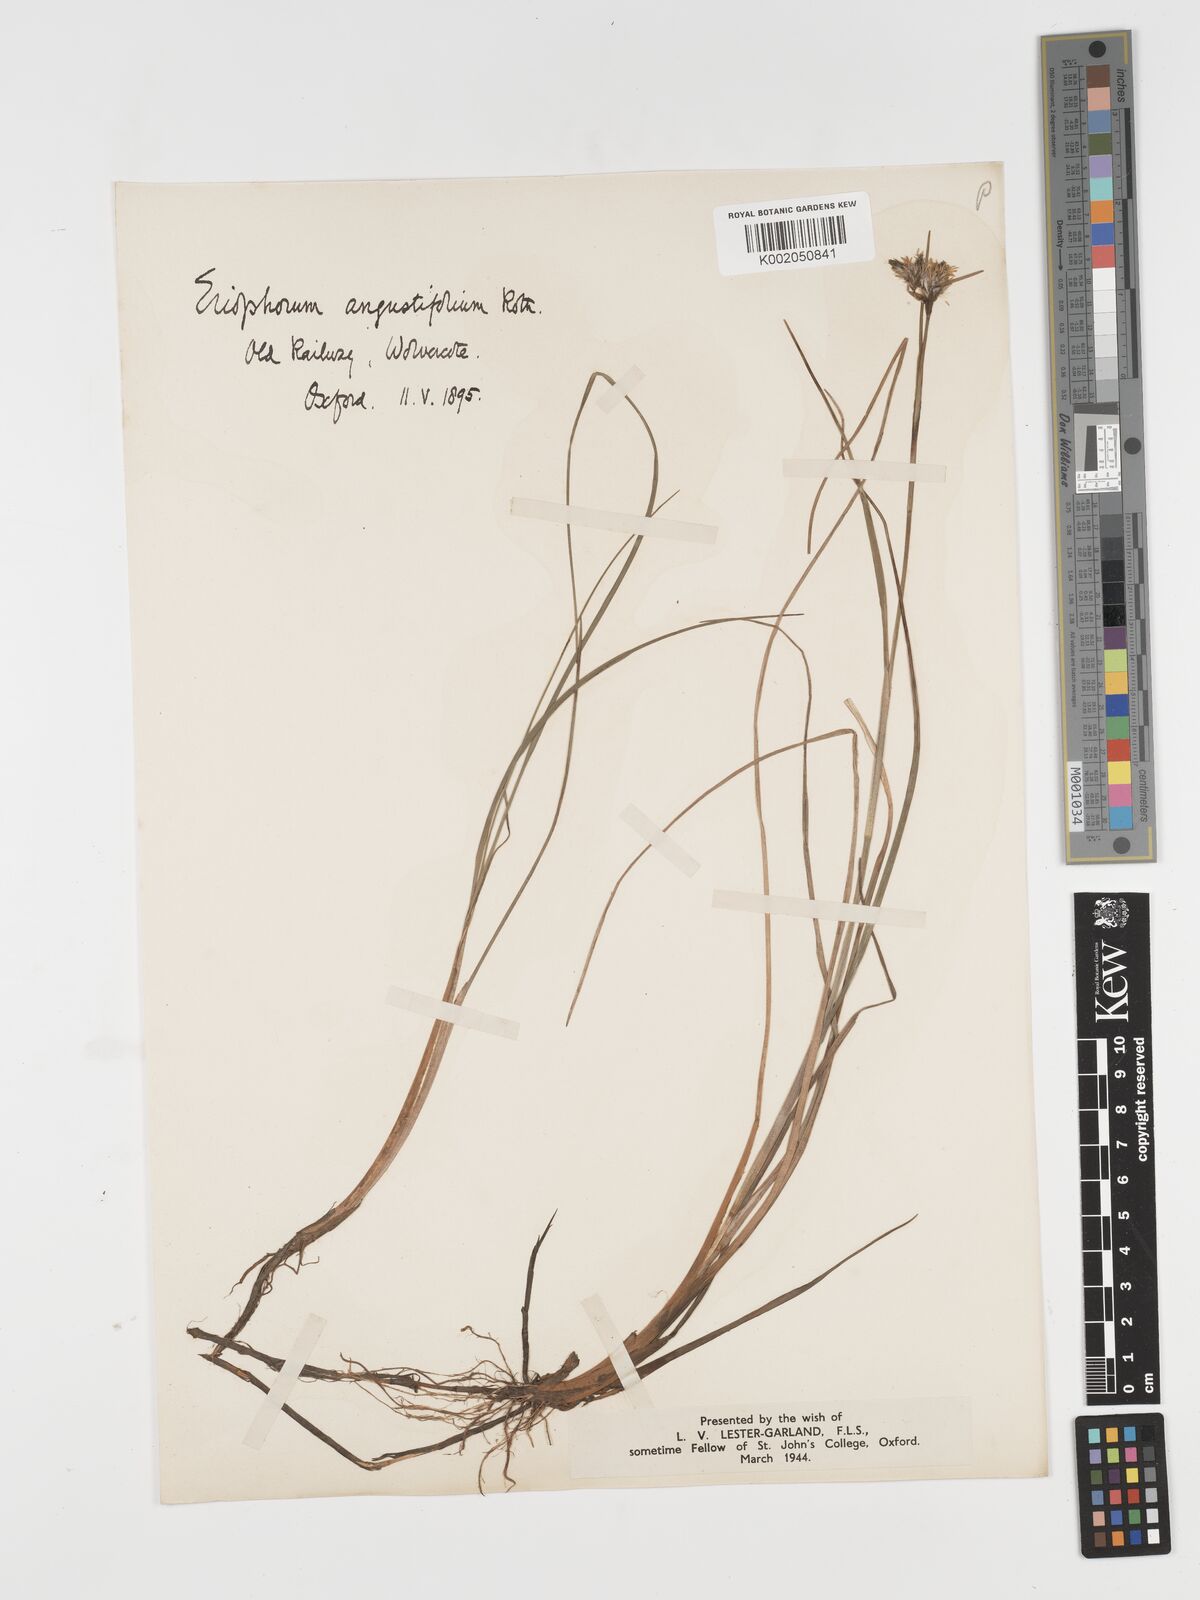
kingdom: Plantae
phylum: Tracheophyta
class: Liliopsida
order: Poales
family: Cyperaceae
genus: Eriophorum
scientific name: Eriophorum angustifolium
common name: Common cottongrass
